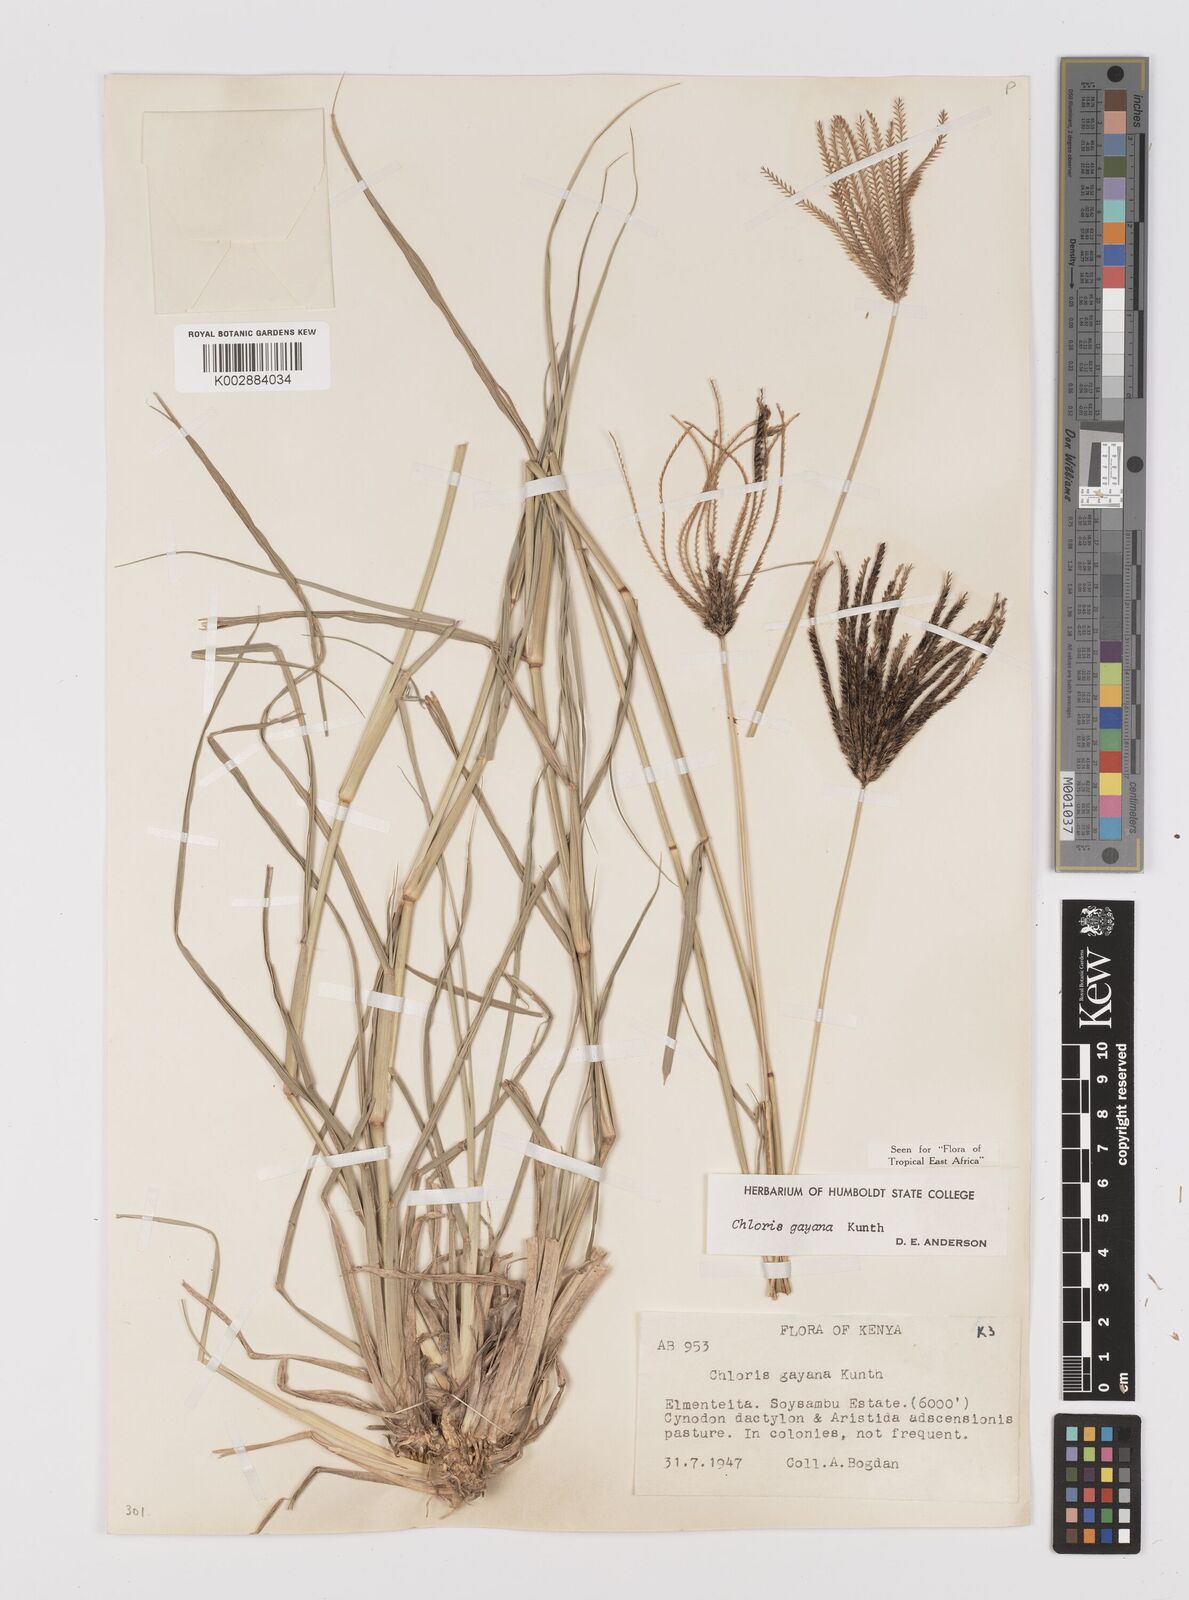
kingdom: Plantae
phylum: Tracheophyta
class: Liliopsida
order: Poales
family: Poaceae
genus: Chloris
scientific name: Chloris gayana
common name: Rhodes grass
